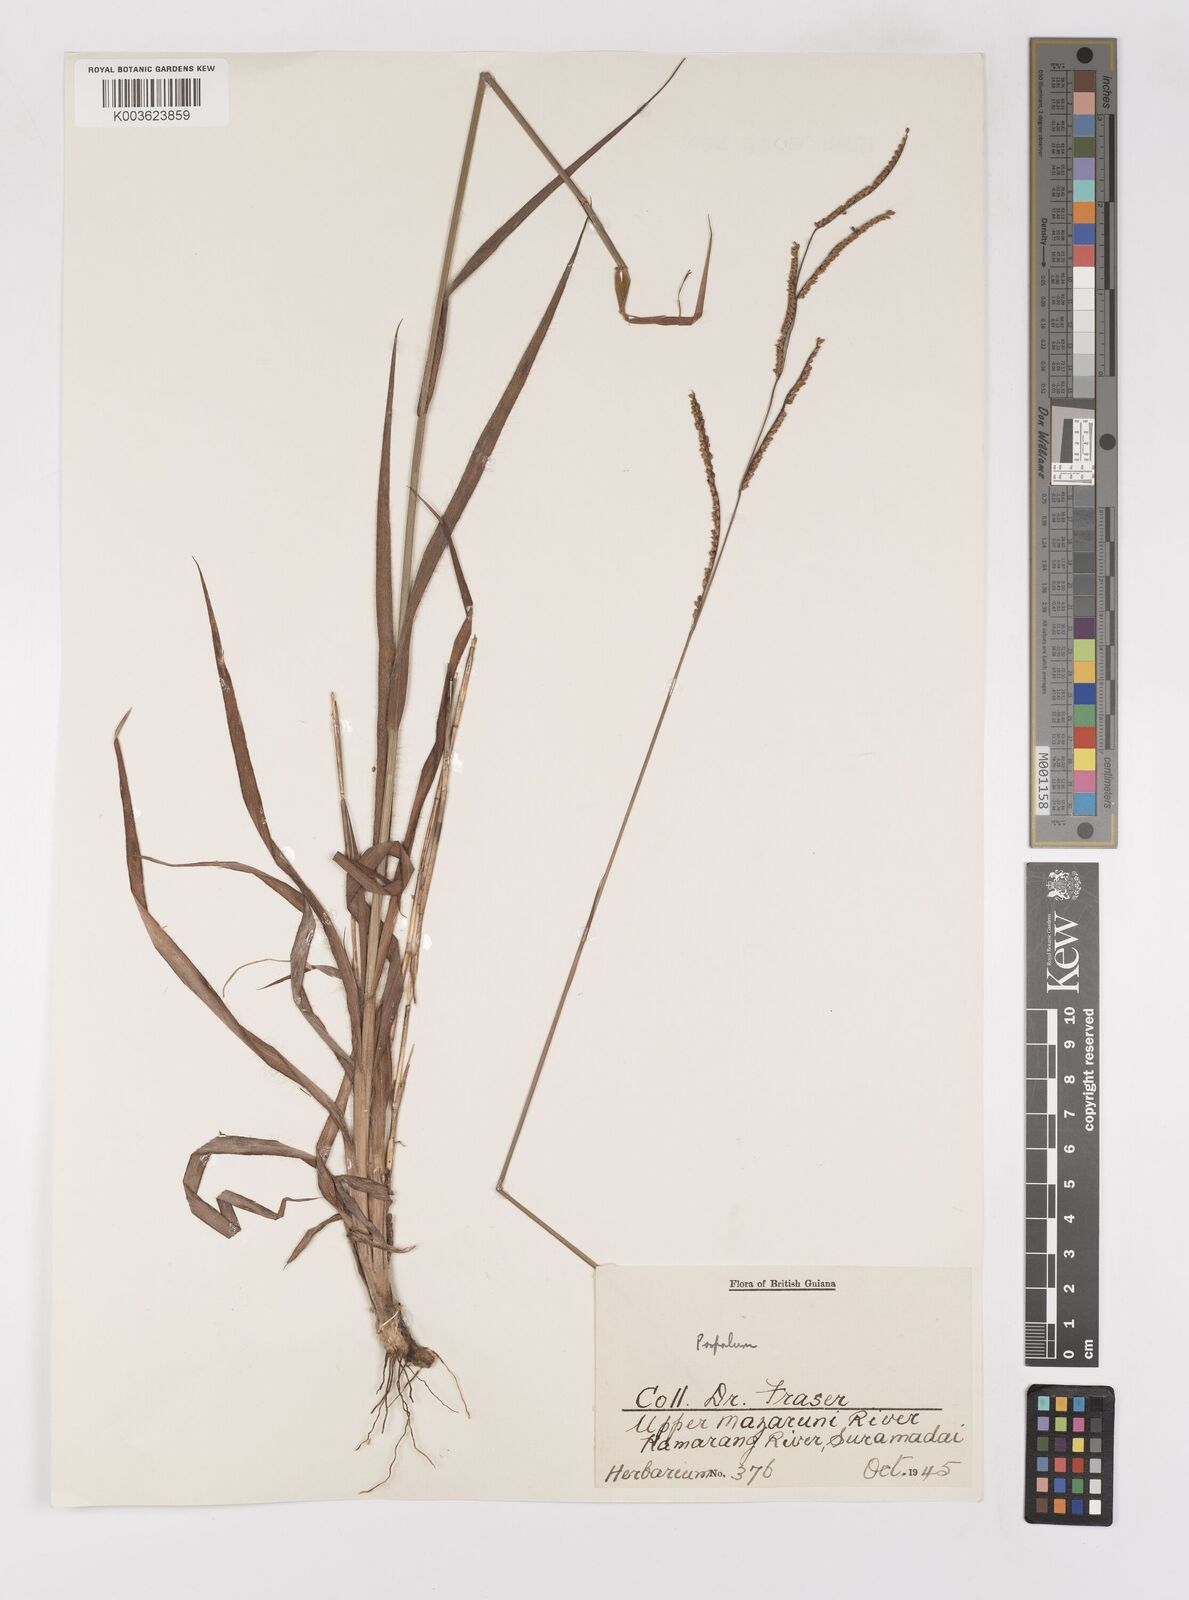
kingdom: Plantae
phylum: Tracheophyta
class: Liliopsida
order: Poales
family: Poaceae
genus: Paspalum
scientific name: Paspalum gardnerianum
